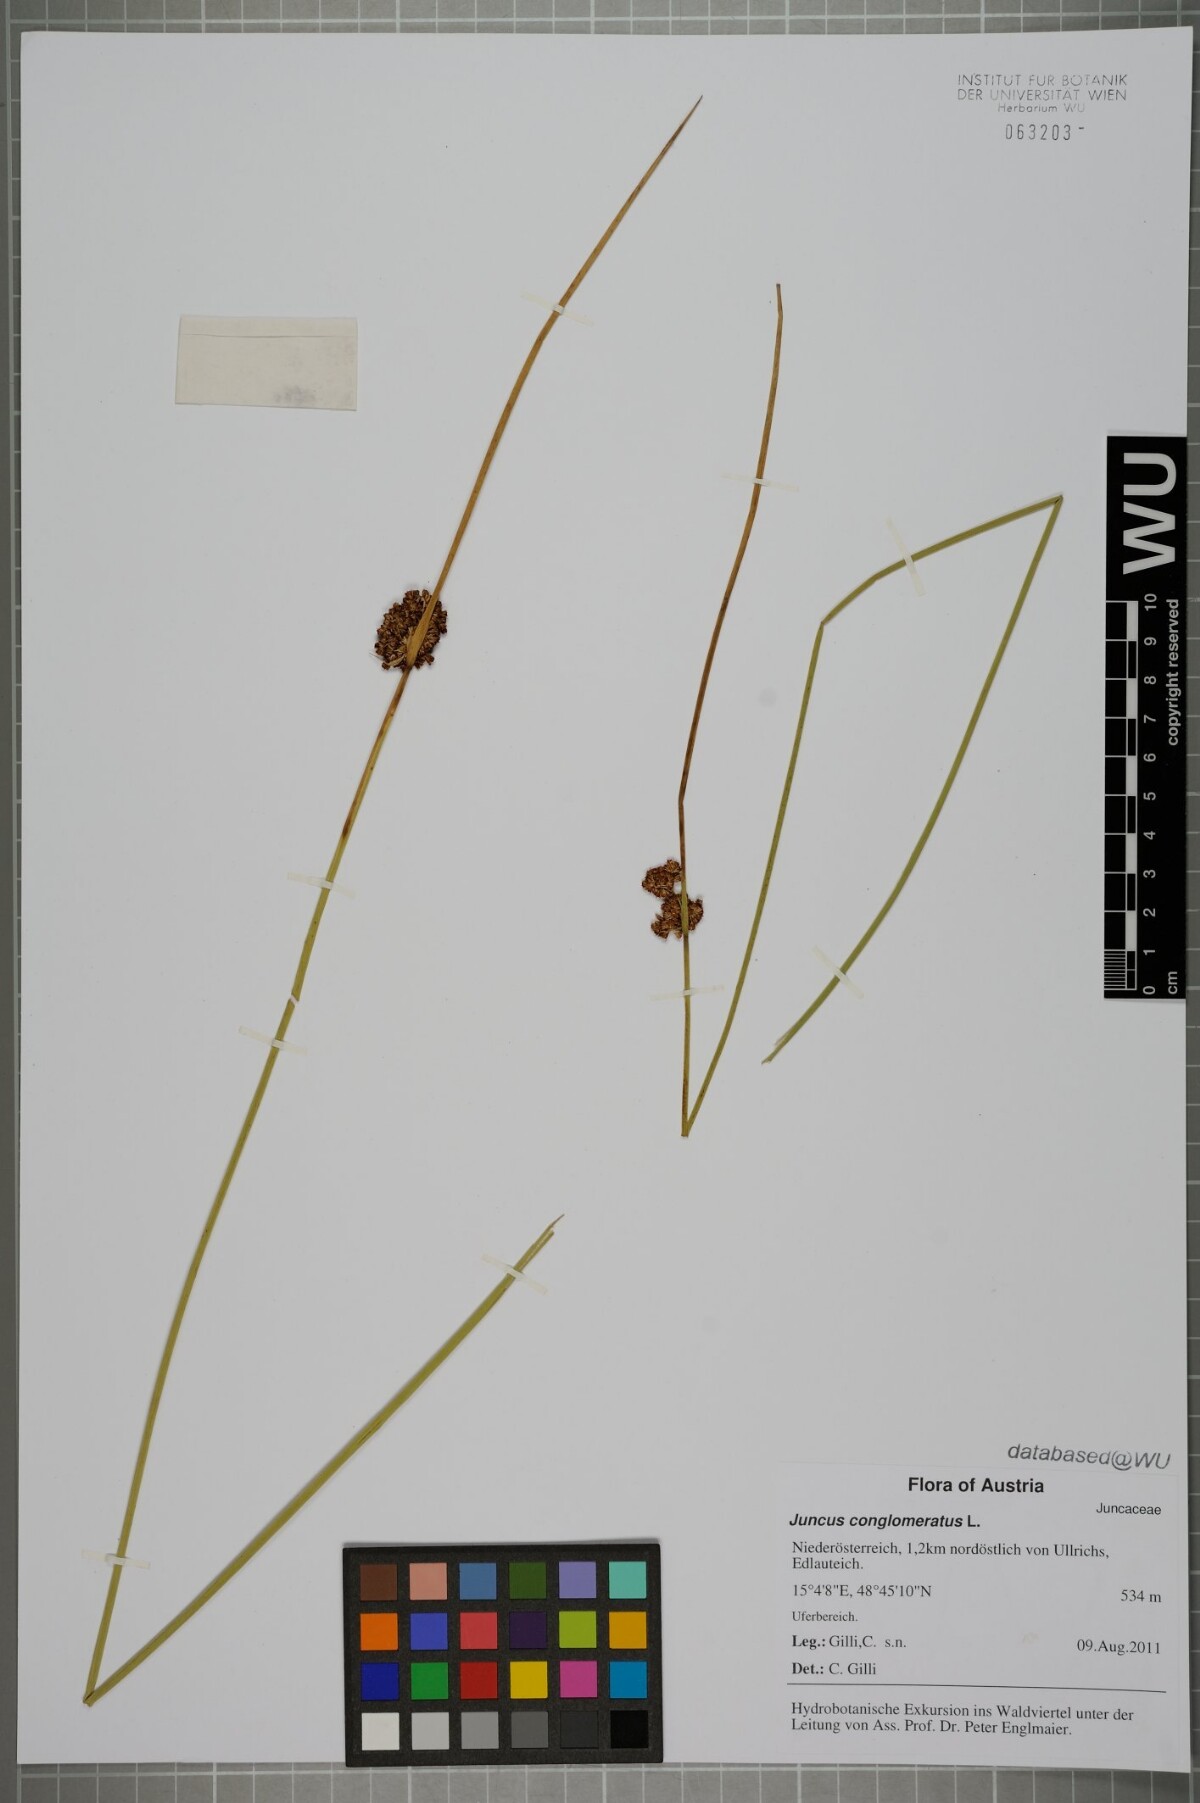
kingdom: Plantae
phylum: Tracheophyta
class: Liliopsida
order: Poales
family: Juncaceae
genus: Juncus
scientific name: Juncus conglomeratus
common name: Compact rush
